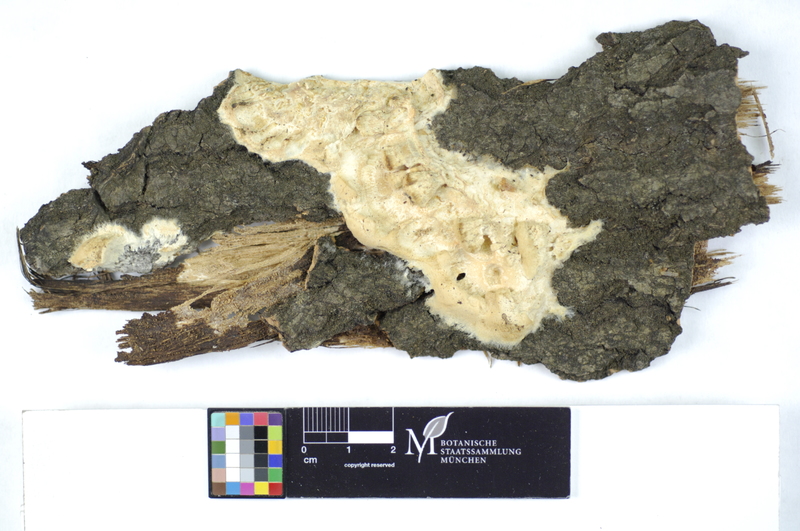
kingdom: Plantae
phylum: Tracheophyta
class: Magnoliopsida
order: Malpighiales
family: Salicaceae
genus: Populus
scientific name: Populus
